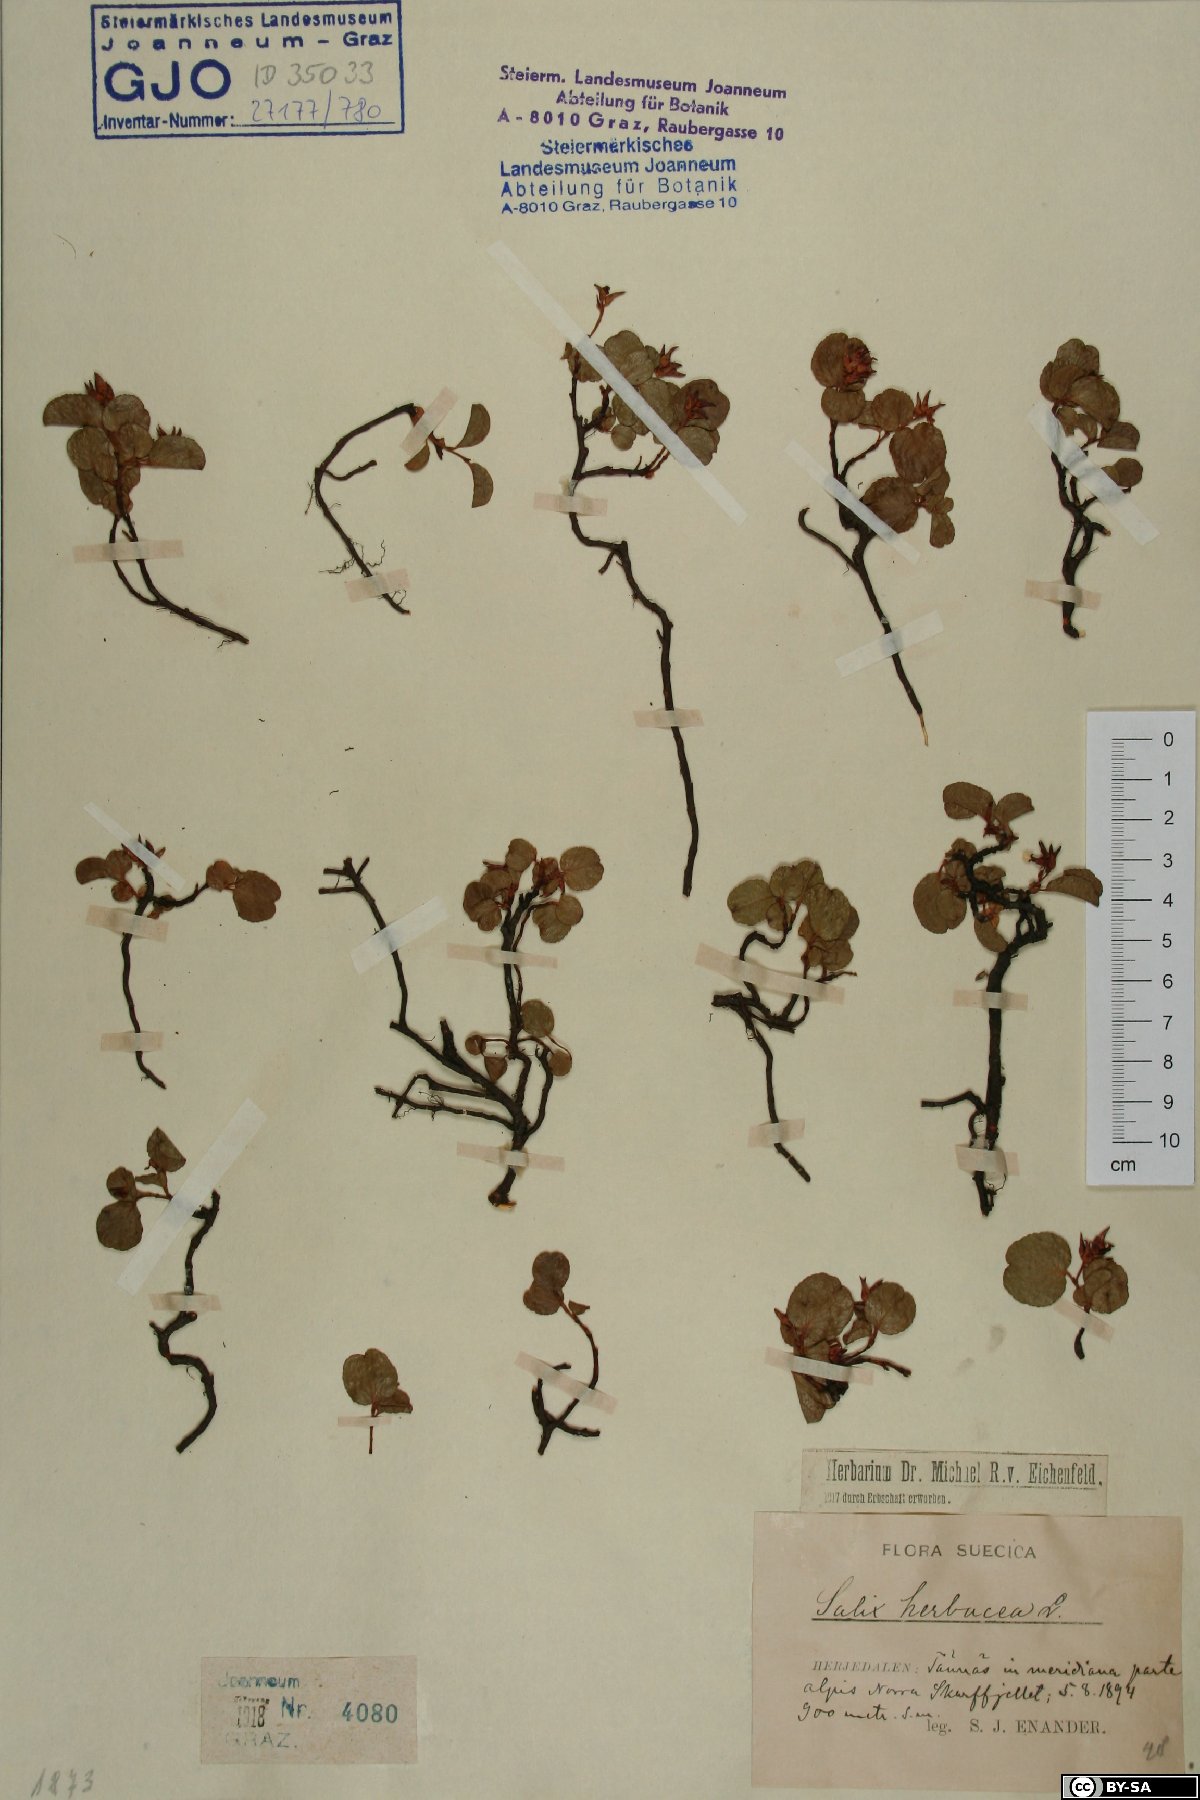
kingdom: Plantae
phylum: Tracheophyta
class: Magnoliopsida
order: Malpighiales
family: Salicaceae
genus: Salix
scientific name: Salix herbacea
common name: Dwarf willow
